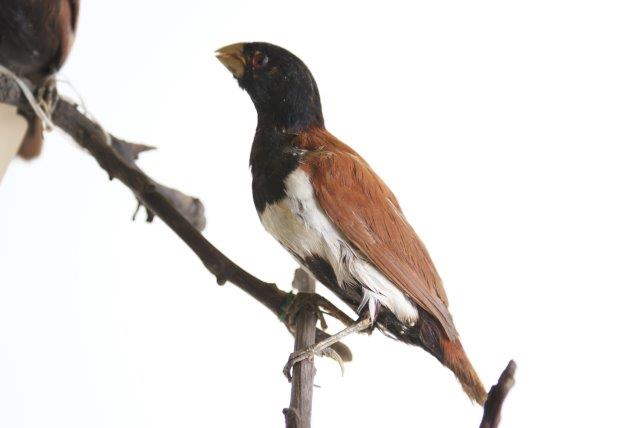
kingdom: Animalia
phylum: Chordata
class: Aves
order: Passeriformes
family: Estrildidae
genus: Lonchura
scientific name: Lonchura malacca
